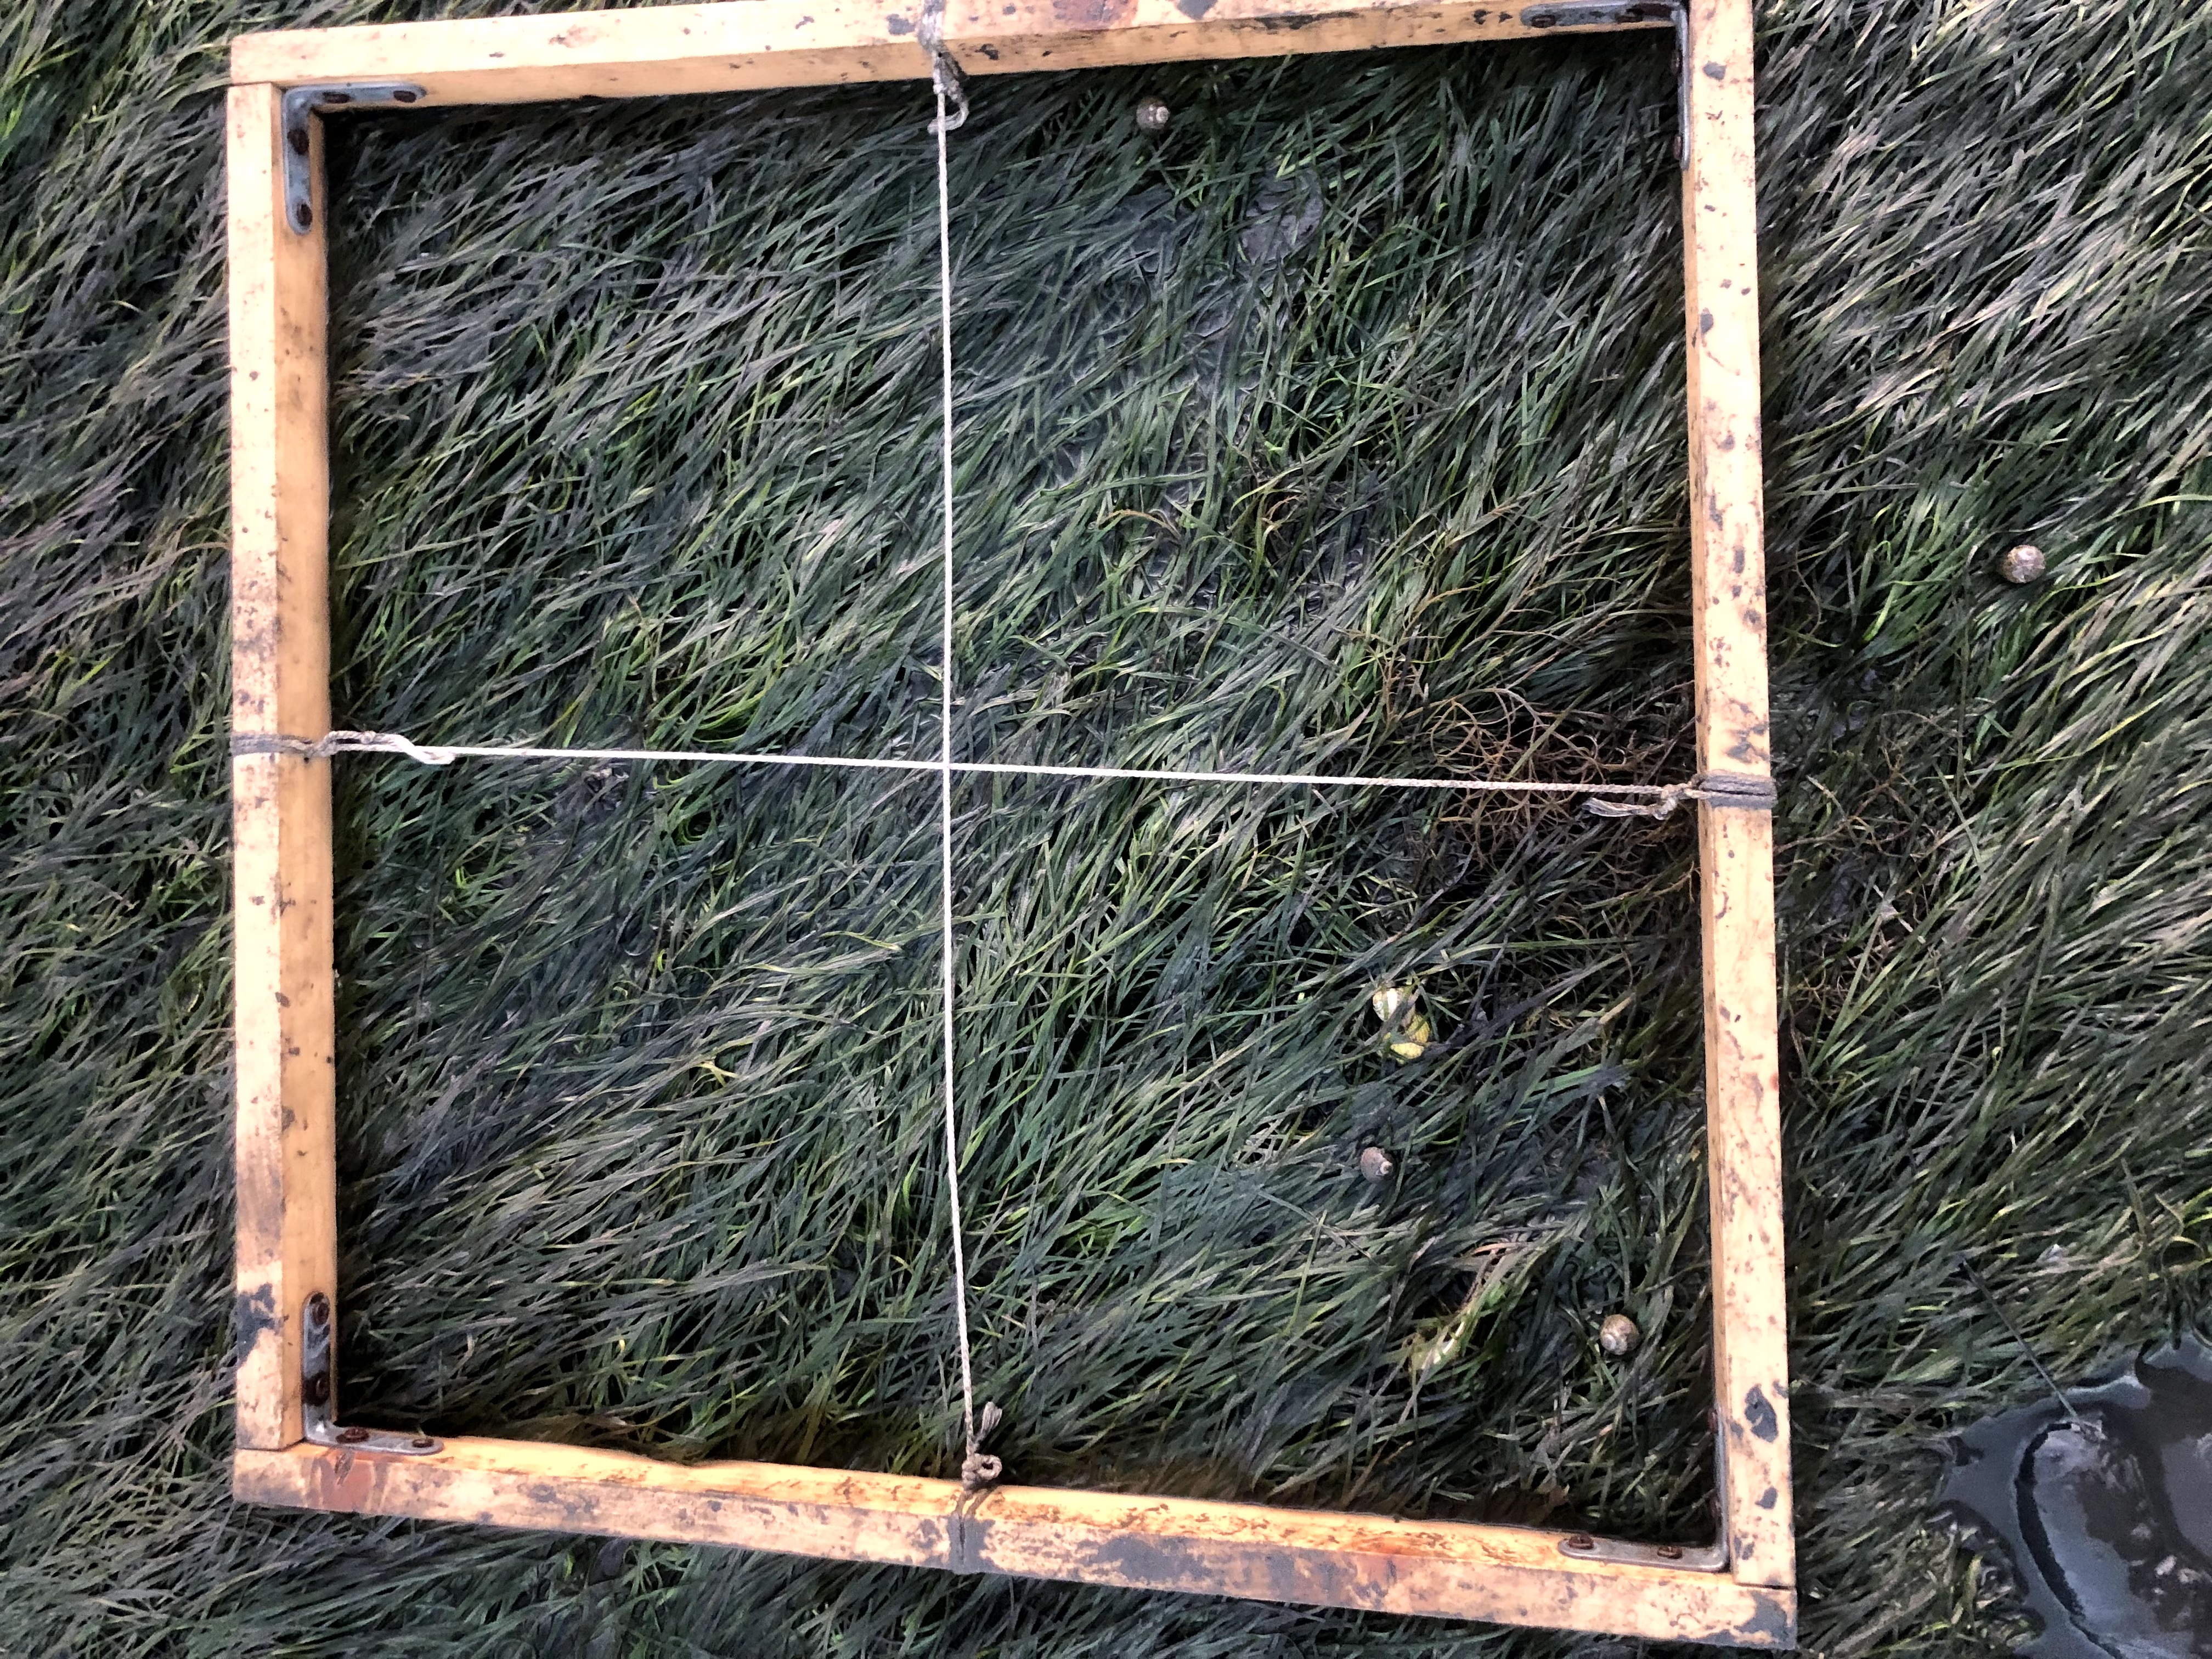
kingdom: Plantae
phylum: Tracheophyta
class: Liliopsida
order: Alismatales
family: Zosteraceae
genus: Zostera
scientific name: Zostera noltii
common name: Dwarf eelgrass
